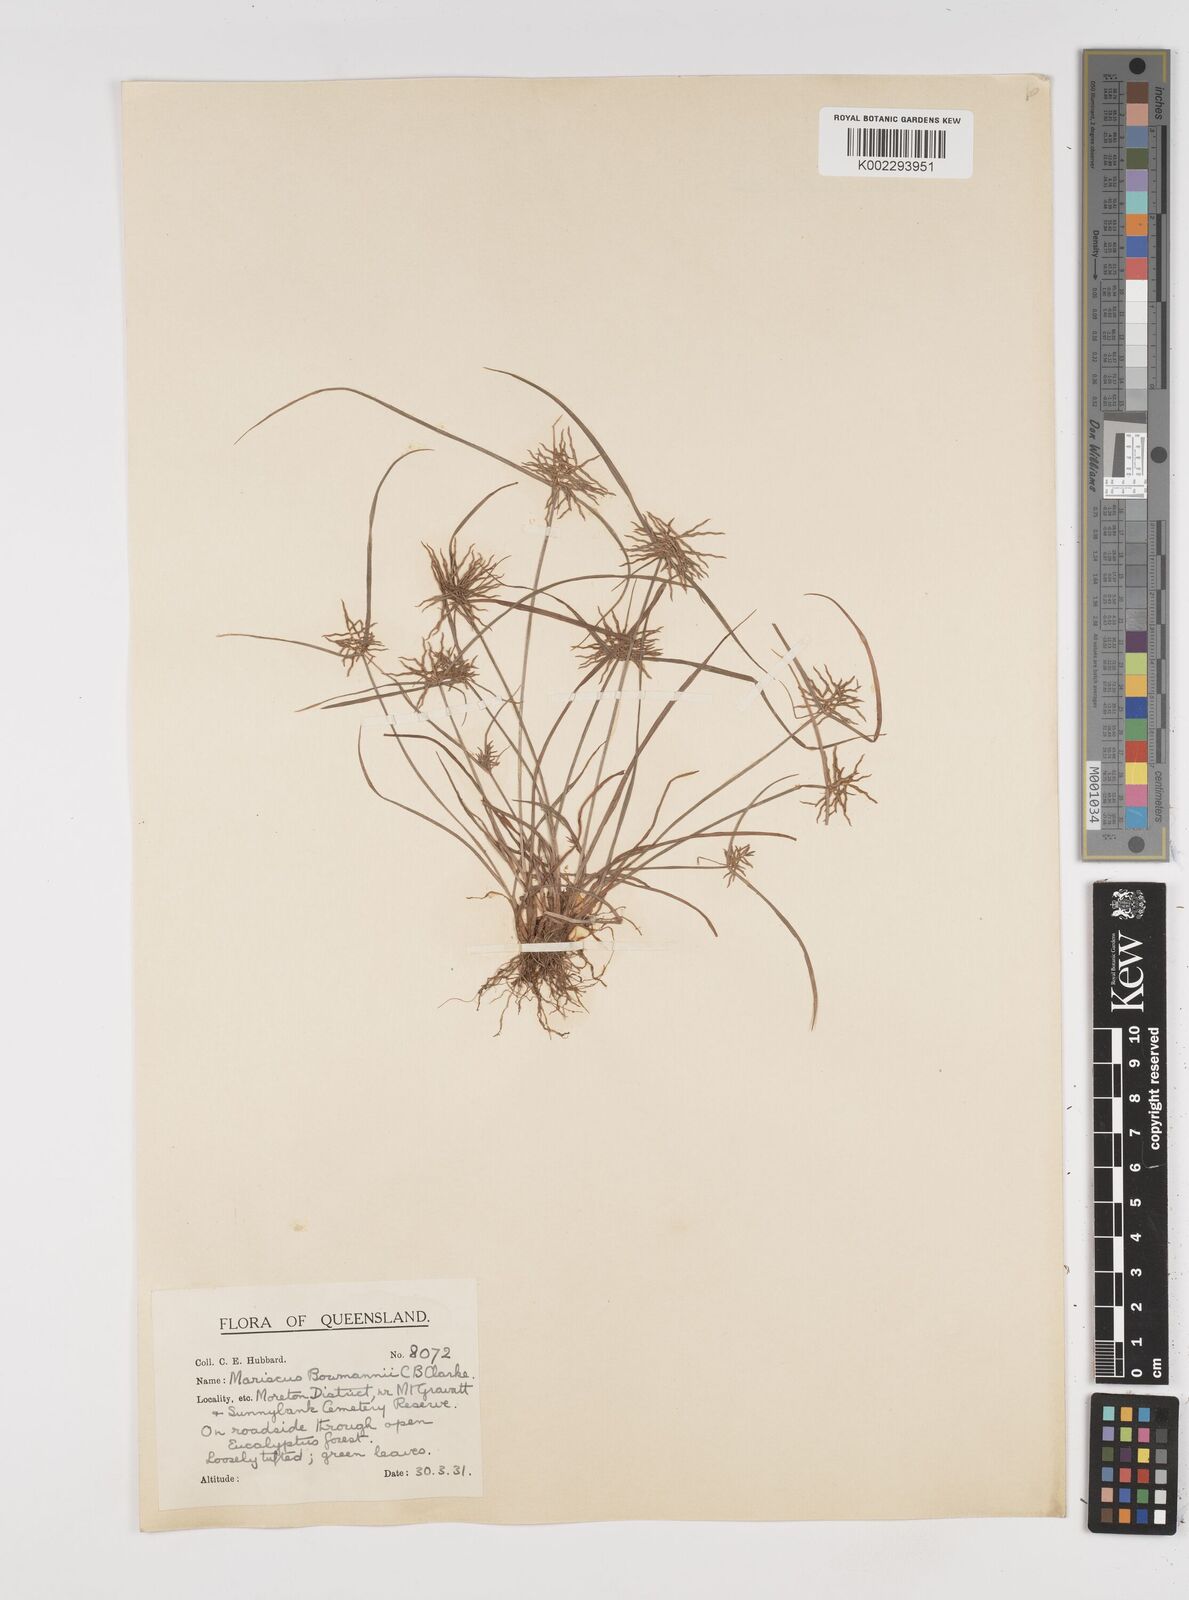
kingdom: Plantae
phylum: Tracheophyta
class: Liliopsida
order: Poales
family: Cyperaceae
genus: Cyperus
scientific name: Cyperus bowmanni
